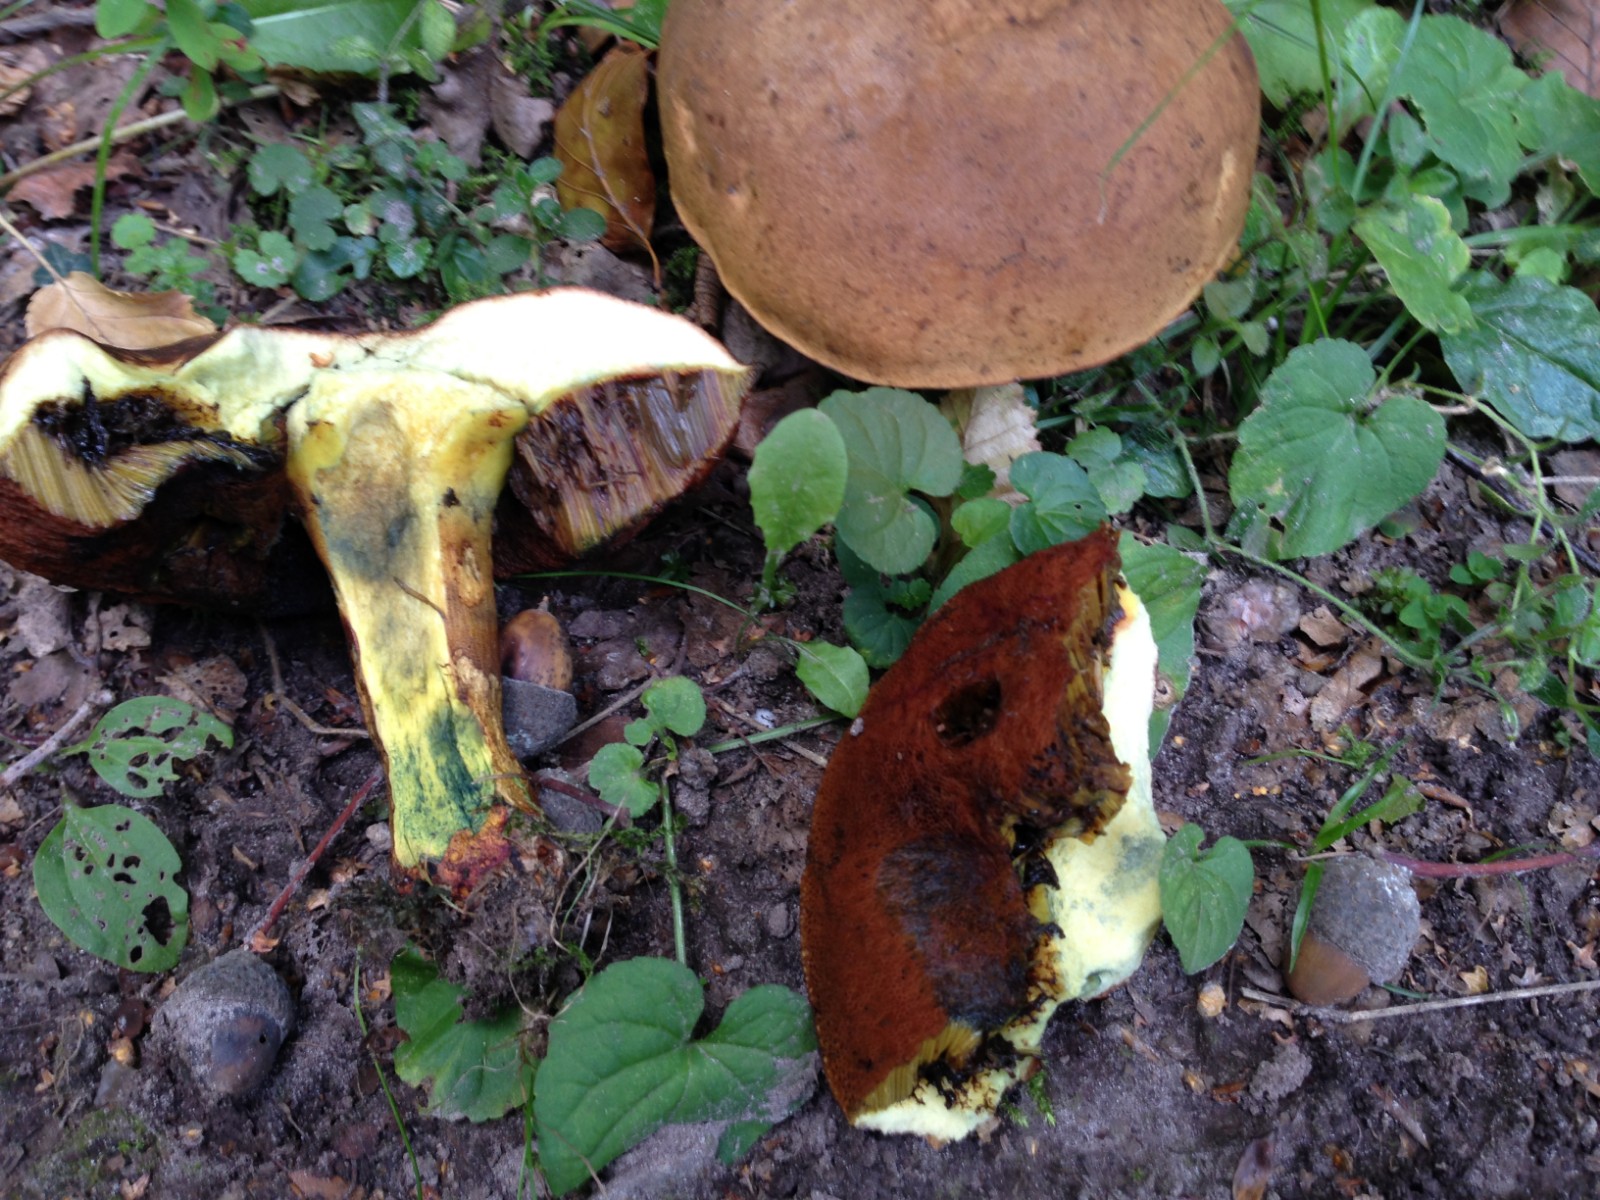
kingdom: Fungi
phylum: Basidiomycota
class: Agaricomycetes
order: Boletales
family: Boletaceae
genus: Neoboletus
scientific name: Neoboletus erythropus
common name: punktstokket indigorørhat
